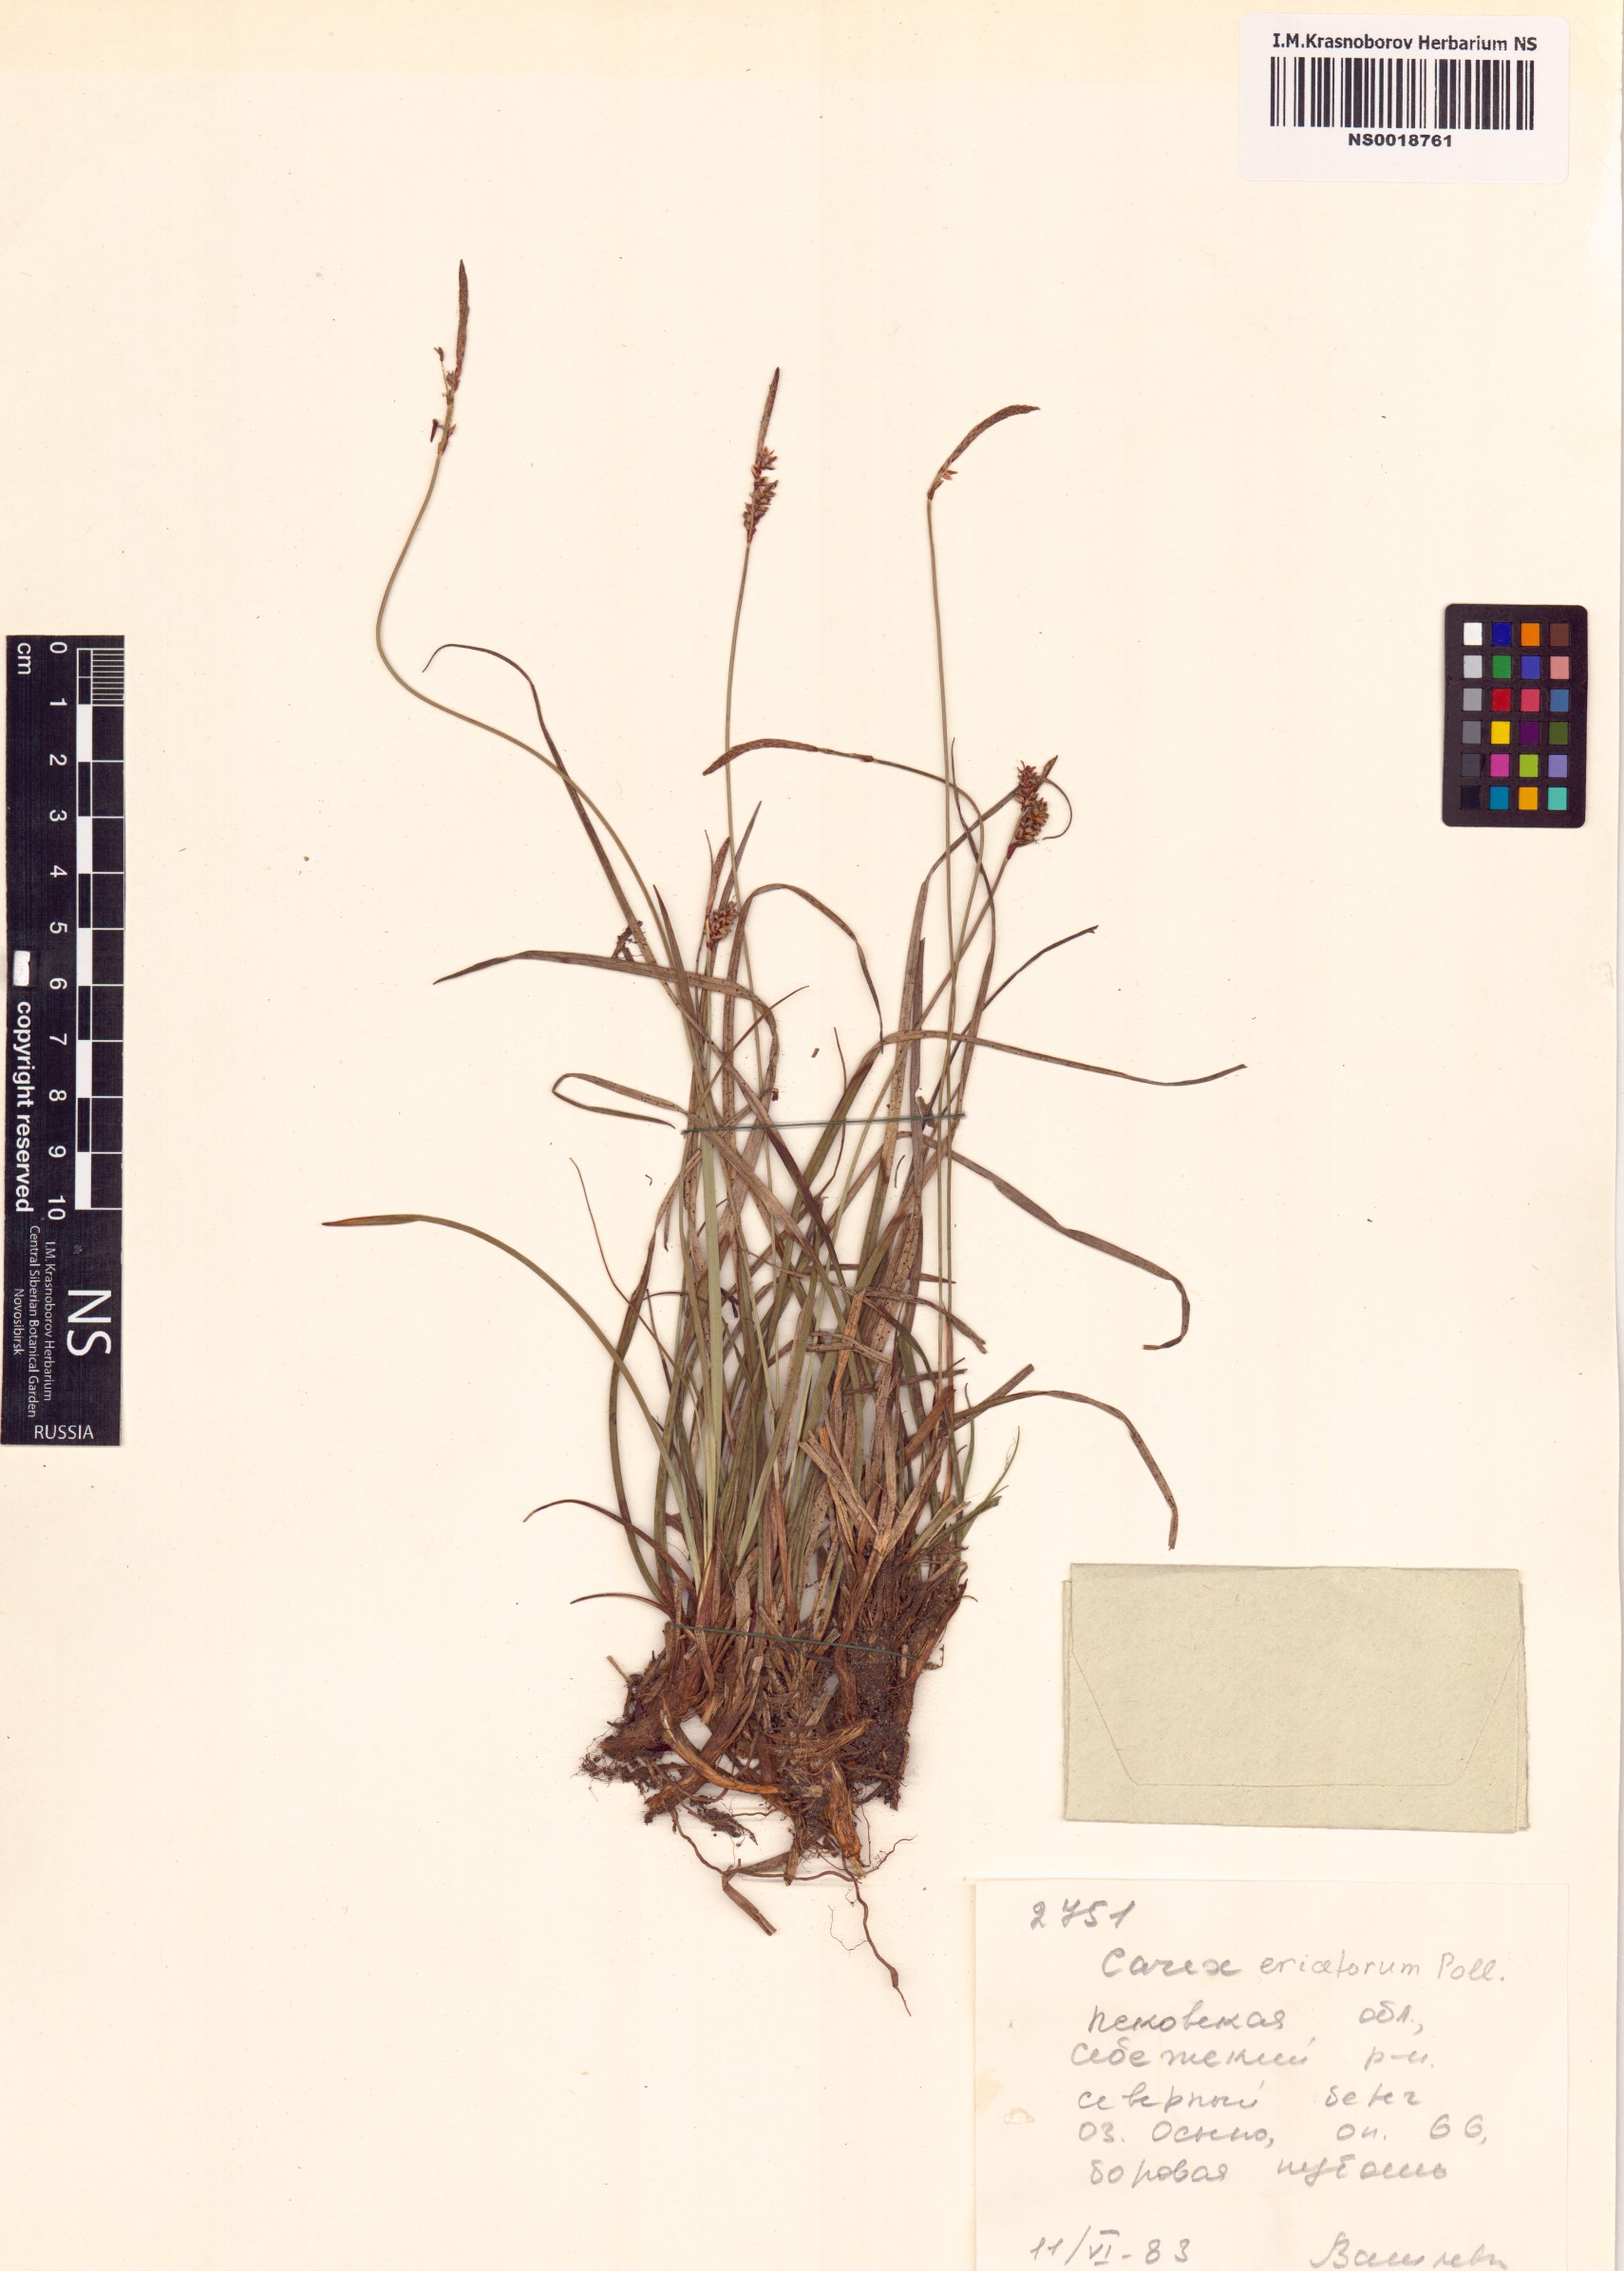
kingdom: Plantae
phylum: Tracheophyta
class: Liliopsida
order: Poales
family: Cyperaceae
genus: Carex
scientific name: Carex ericetorum
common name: Rare spring-sedge
